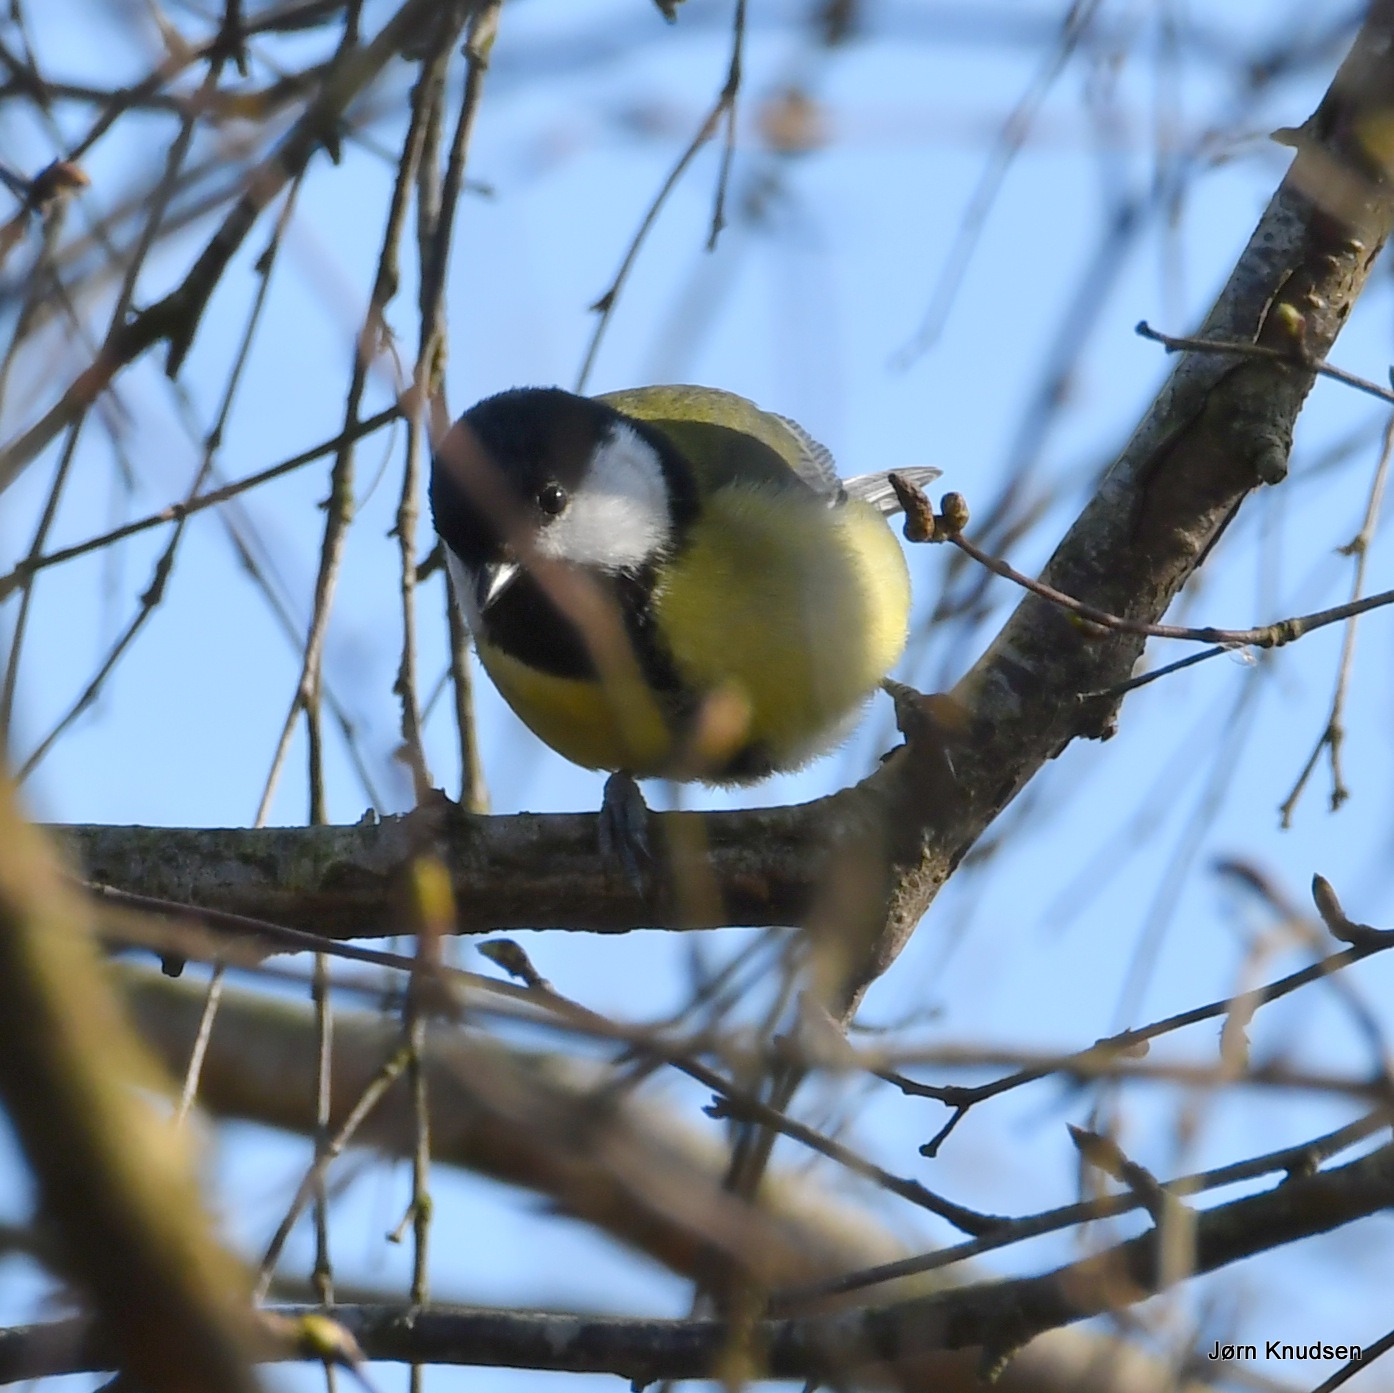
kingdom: Animalia
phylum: Chordata
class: Aves
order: Passeriformes
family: Paridae
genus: Parus
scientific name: Parus major
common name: Musvit
